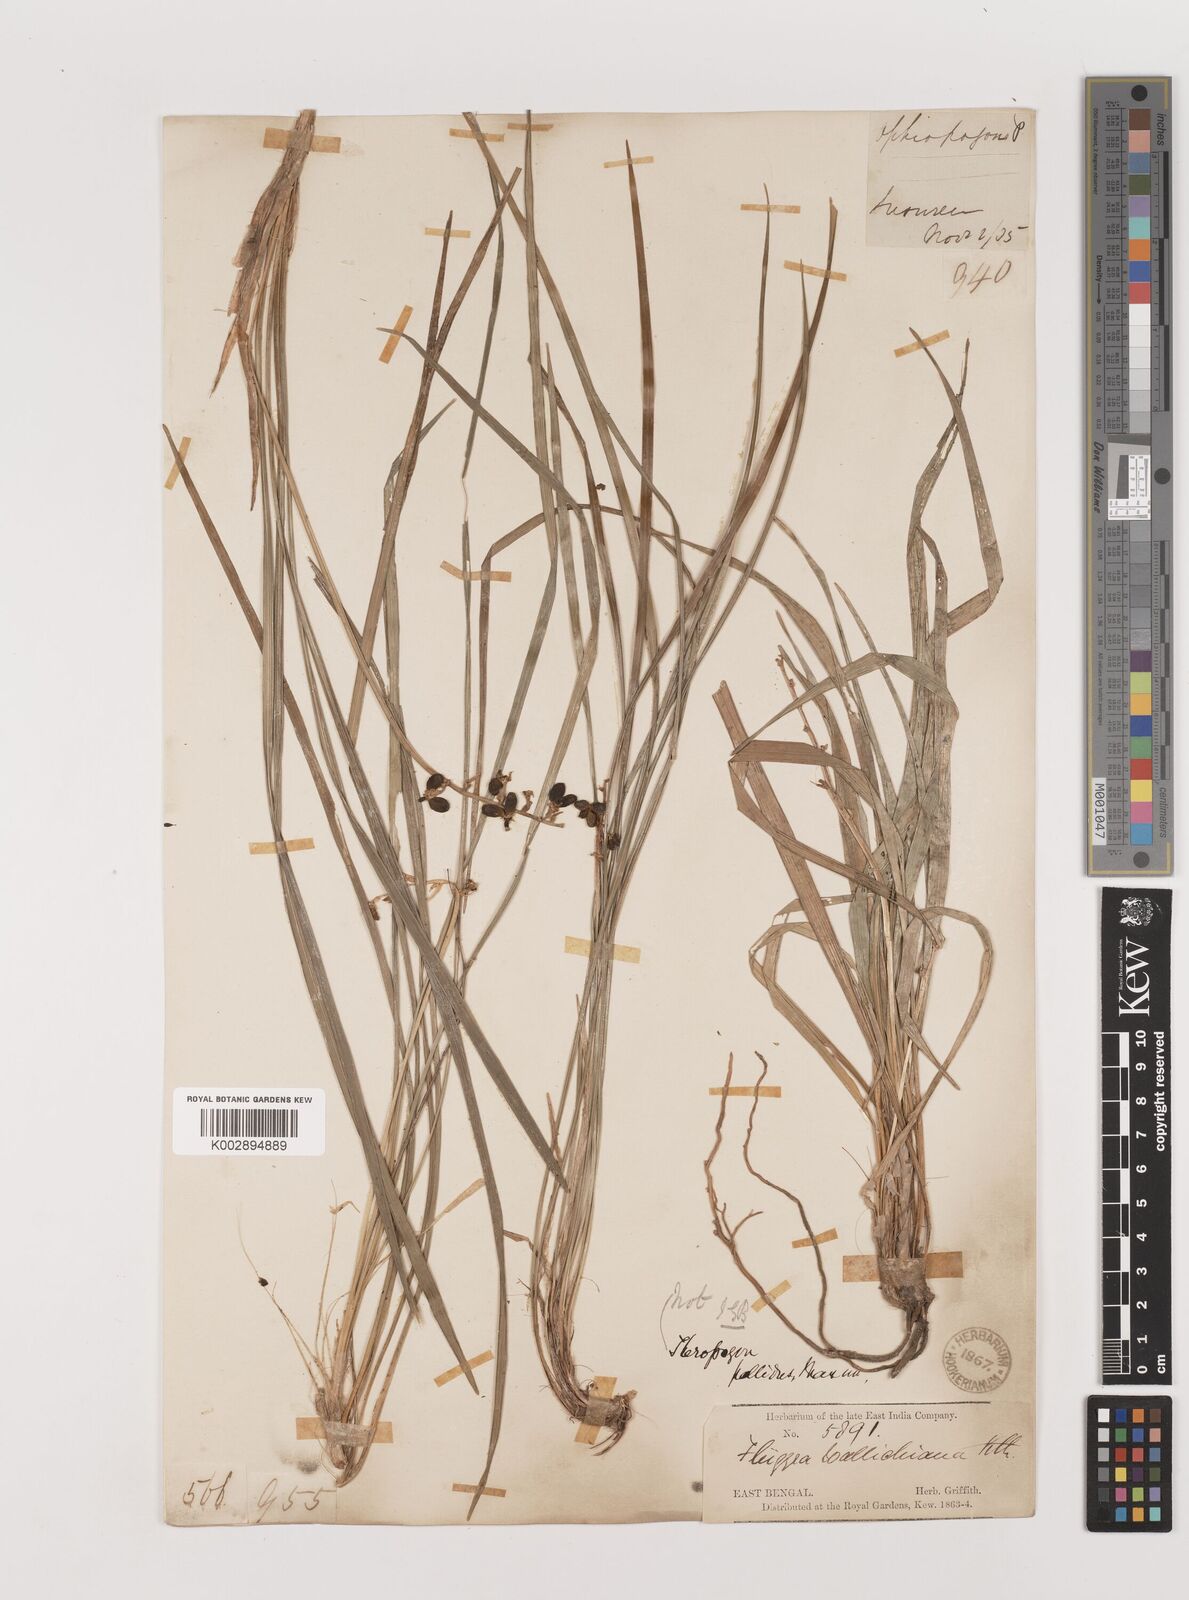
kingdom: Plantae
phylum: Tracheophyta
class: Liliopsida
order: Asparagales
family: Asparagaceae
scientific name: Asparagaceae
